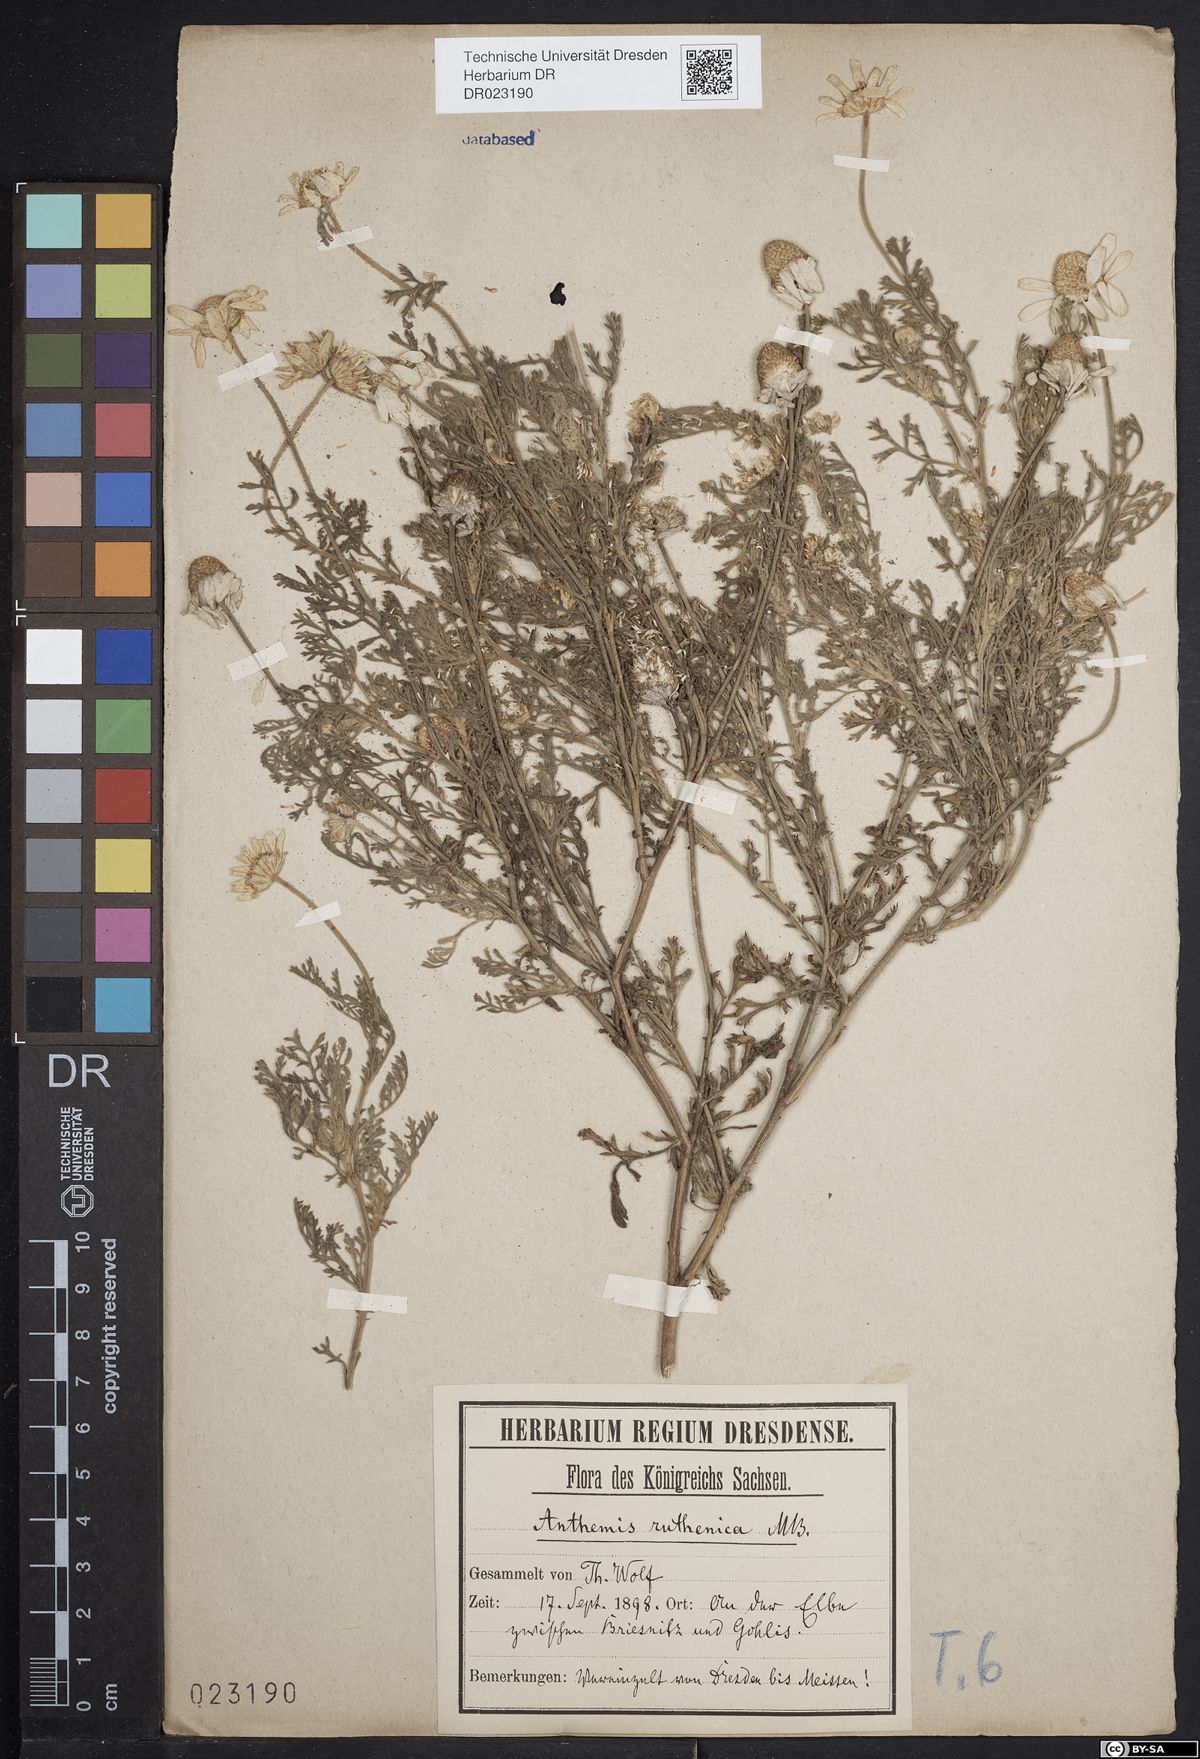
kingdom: Plantae
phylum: Tracheophyta
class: Magnoliopsida
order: Asterales
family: Asteraceae
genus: Anthemis
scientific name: Anthemis ruthenica
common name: Eastern chamomile
